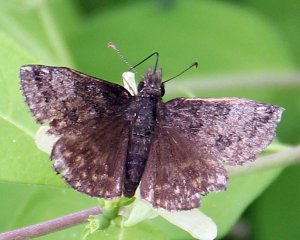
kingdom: Animalia
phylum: Arthropoda
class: Insecta
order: Lepidoptera
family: Hesperiidae
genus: Erynnis
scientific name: Erynnis icelus
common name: Dreamy Duskywing
